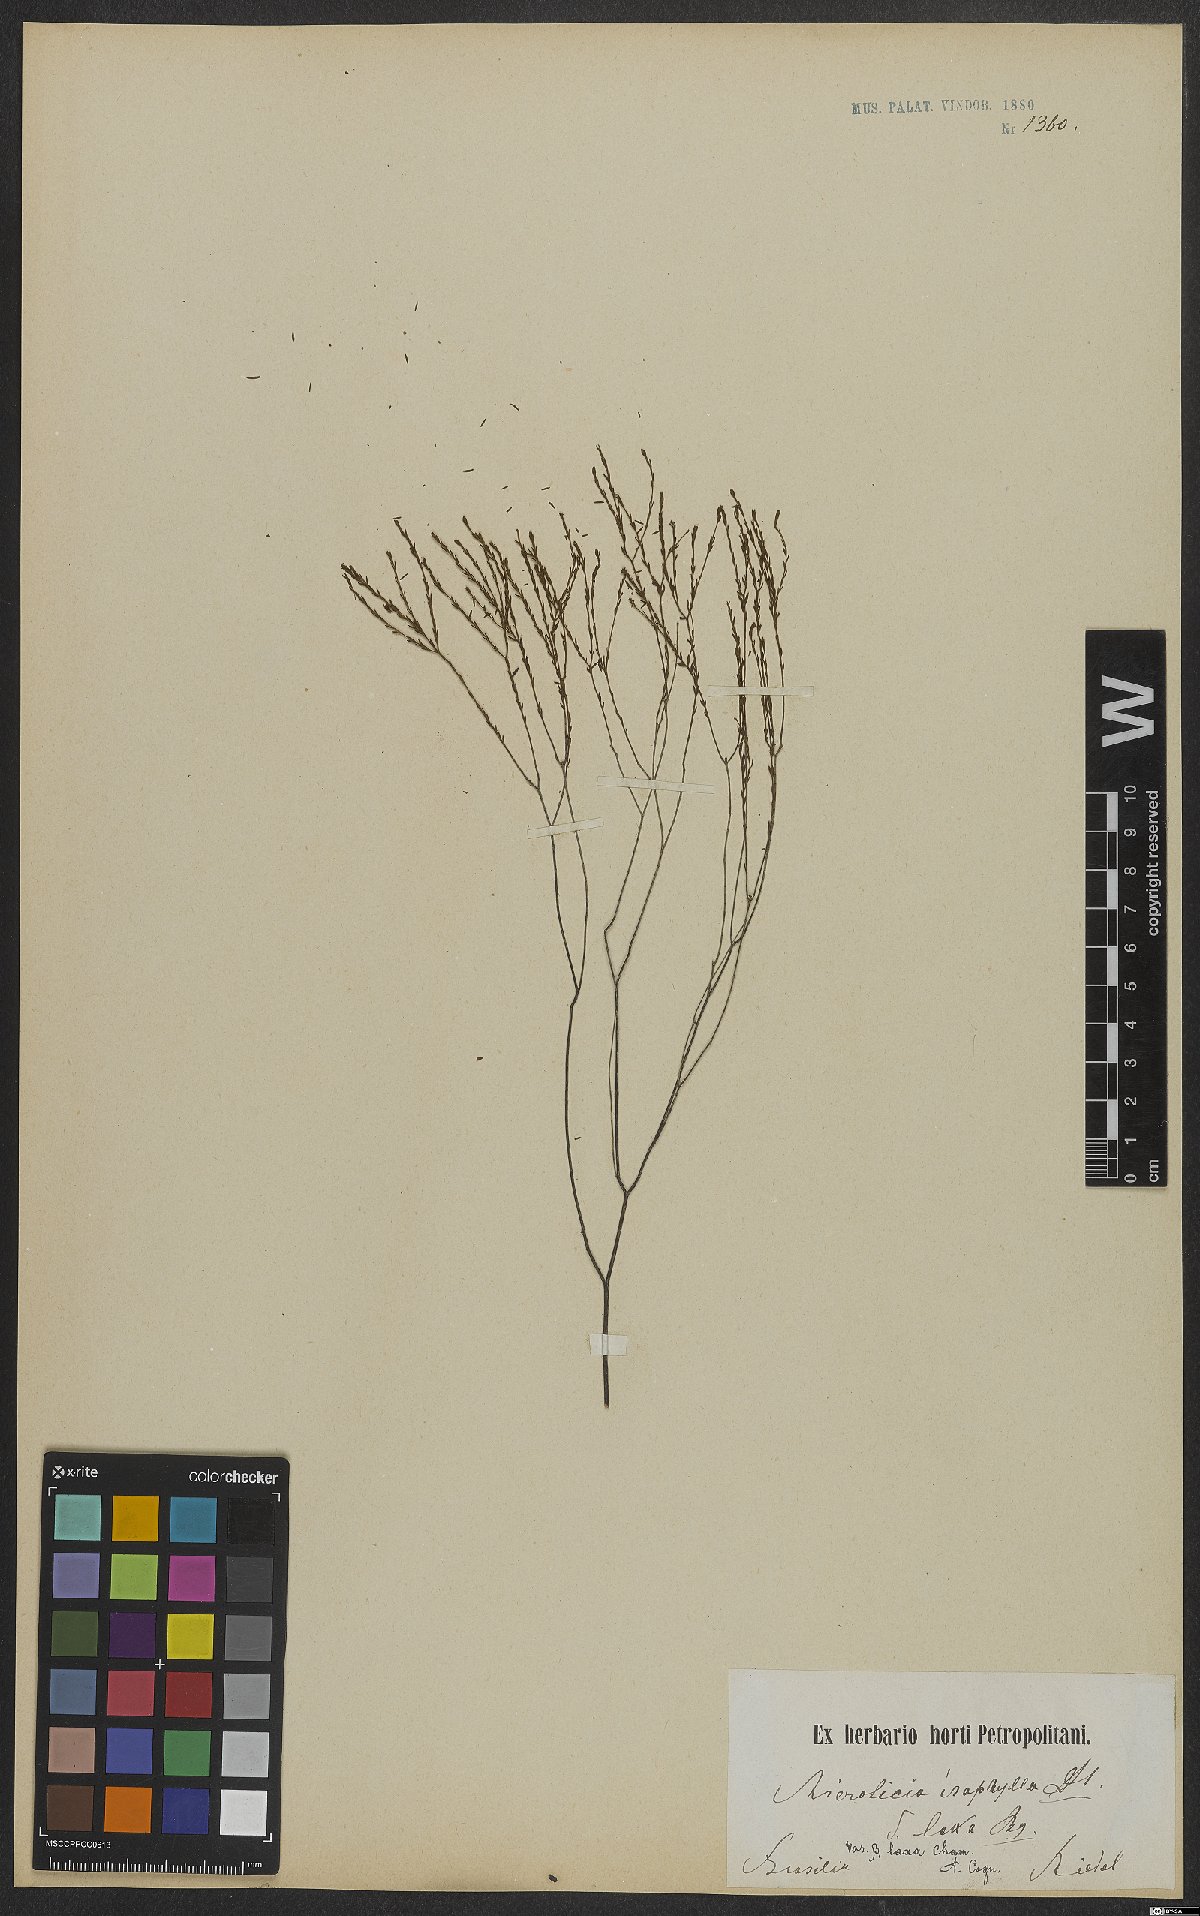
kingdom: Plantae
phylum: Tracheophyta
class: Magnoliopsida
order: Myrtales
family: Melastomataceae
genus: Microlicia
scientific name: Microlicia isophylla
